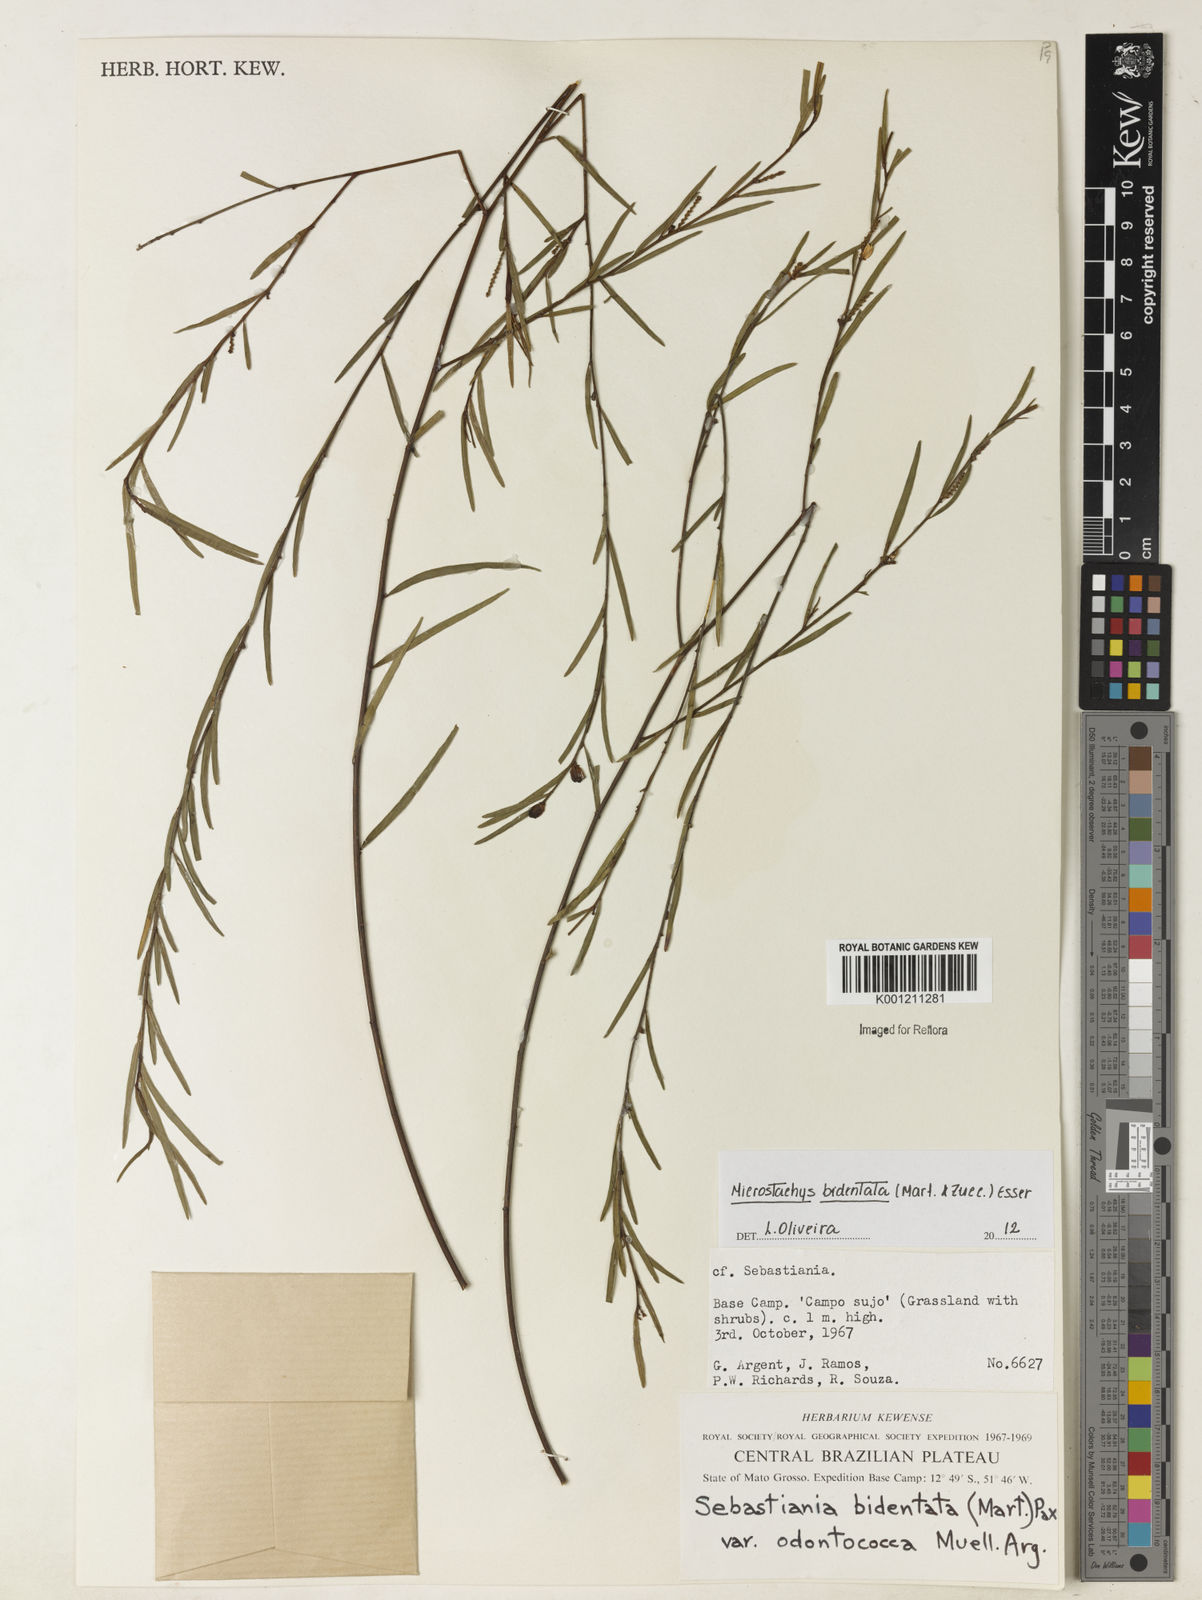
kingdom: Plantae
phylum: Tracheophyta
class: Magnoliopsida
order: Malpighiales
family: Euphorbiaceae
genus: Microstachys
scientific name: Microstachys bidentata
